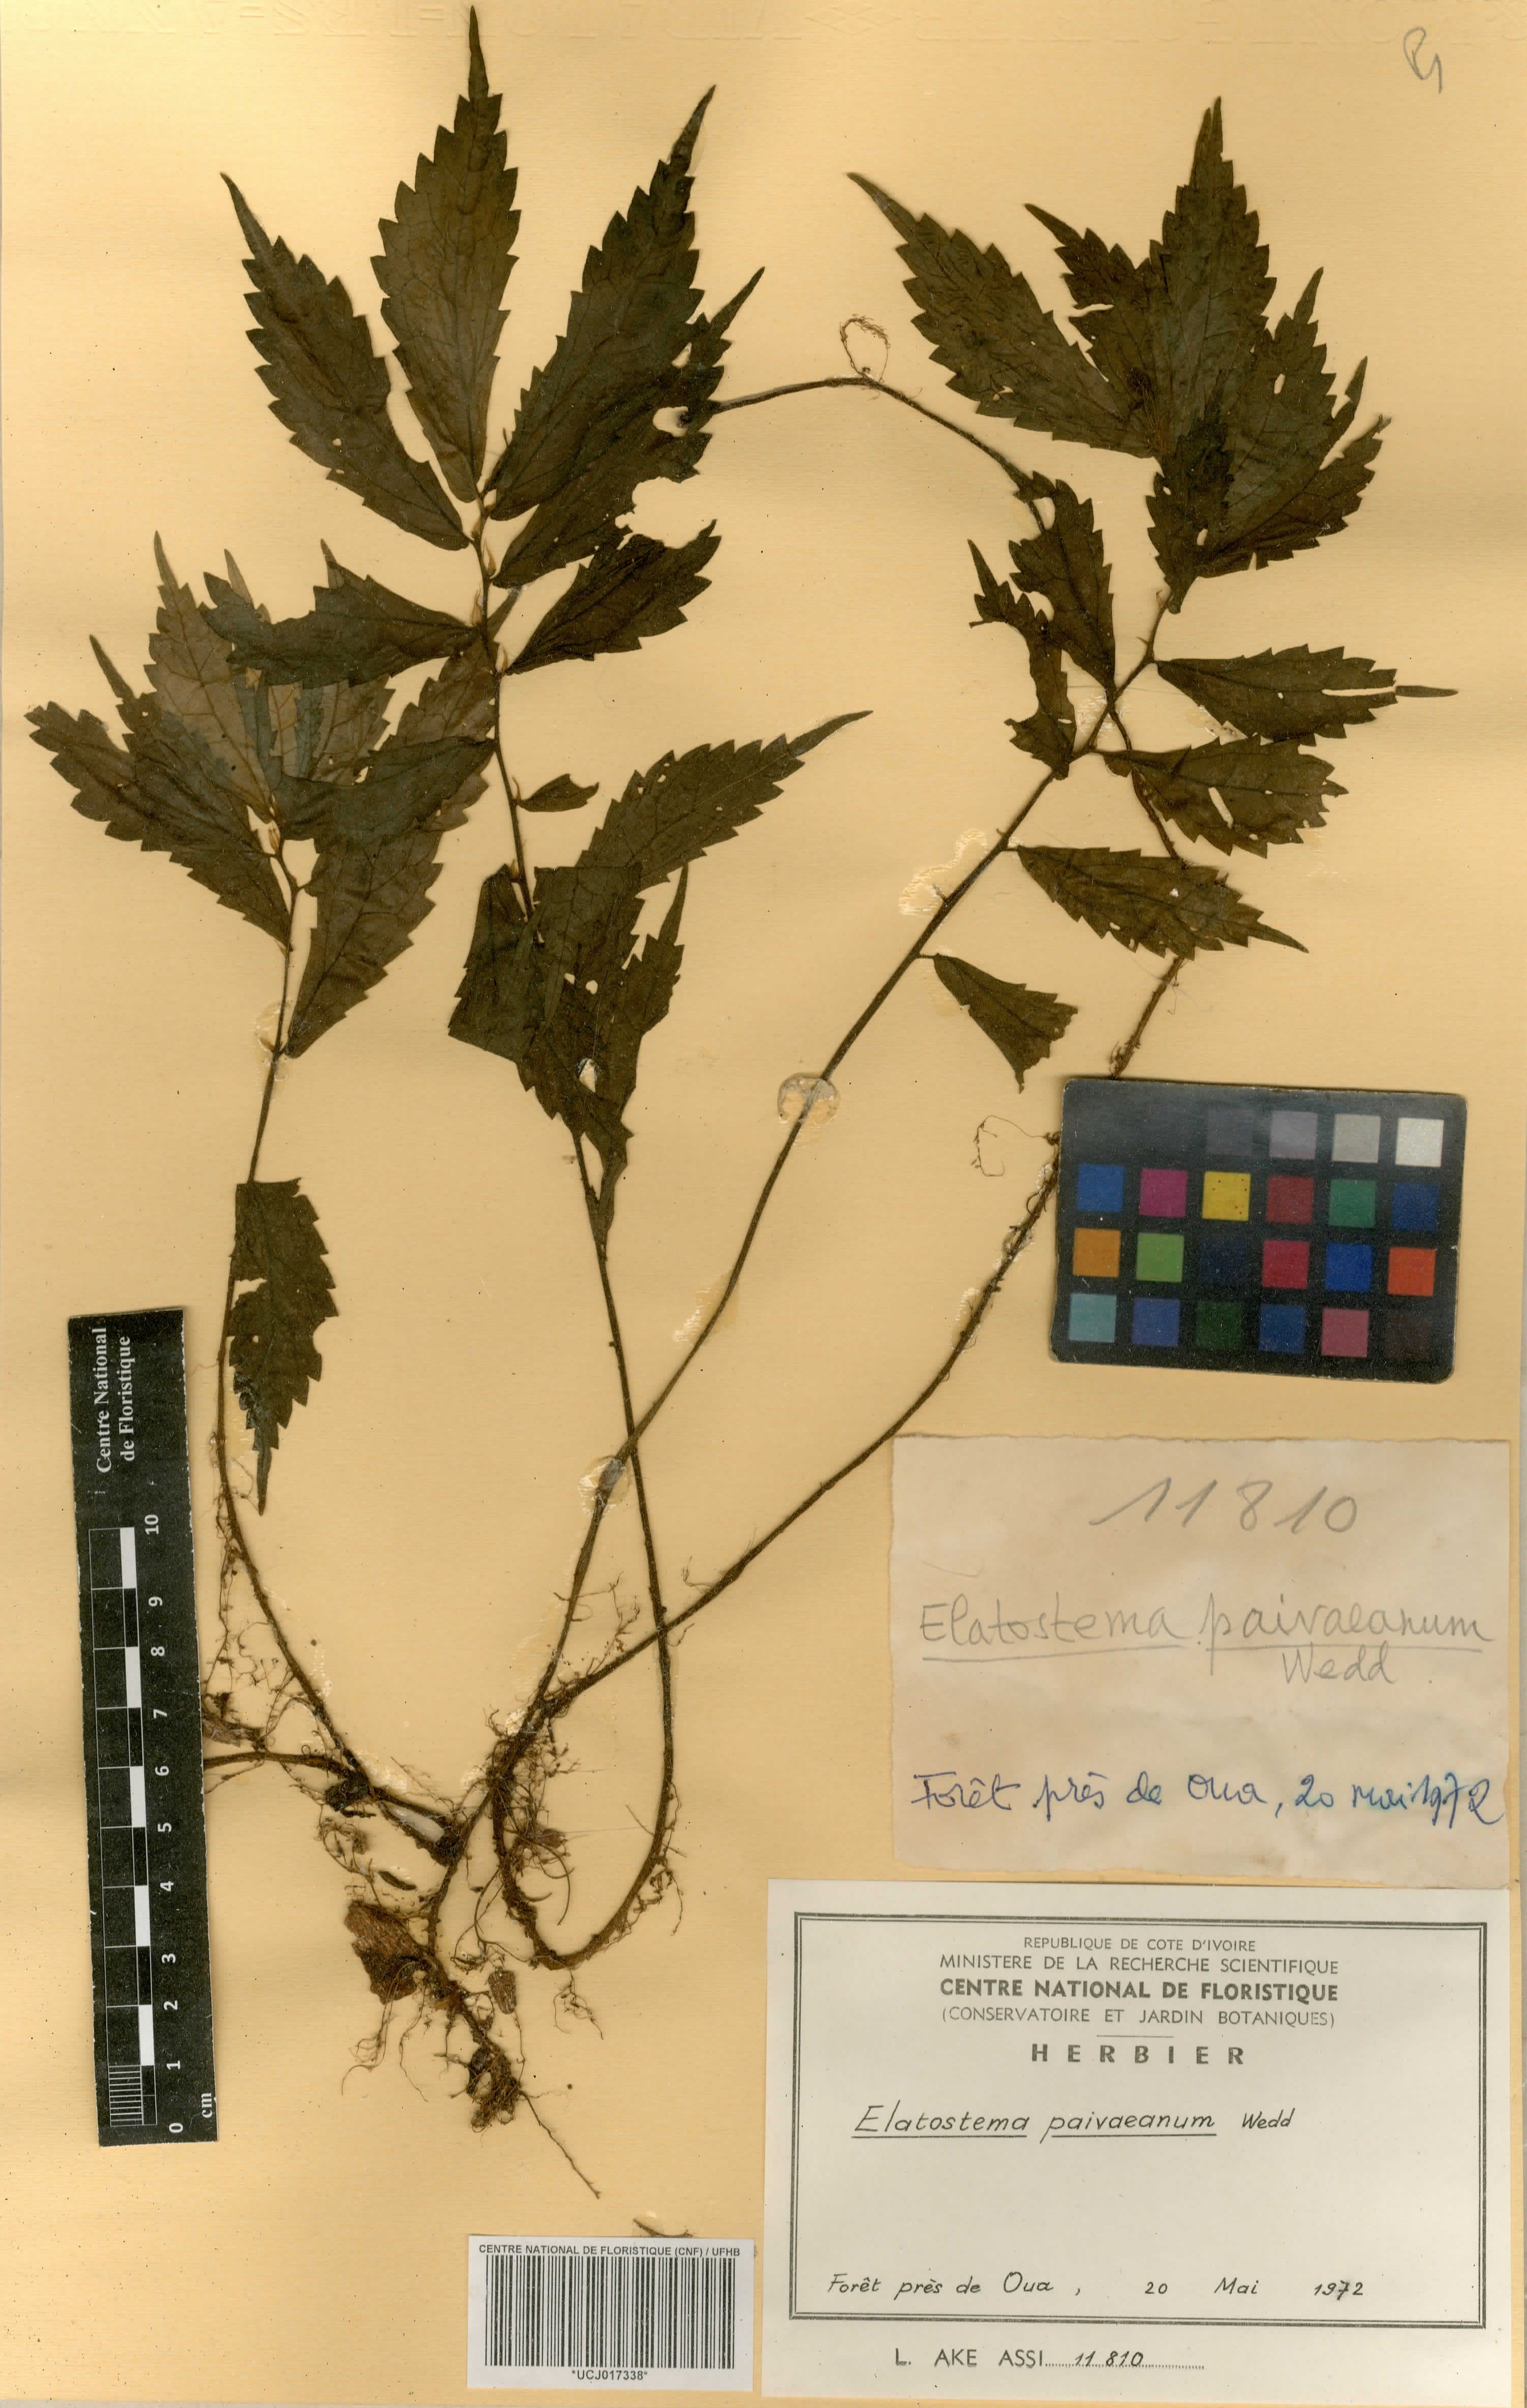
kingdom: Plantae
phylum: Tracheophyta
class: Magnoliopsida
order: Rosales
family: Urticaceae
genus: Elatostema
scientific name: Elatostema paivaeanum
